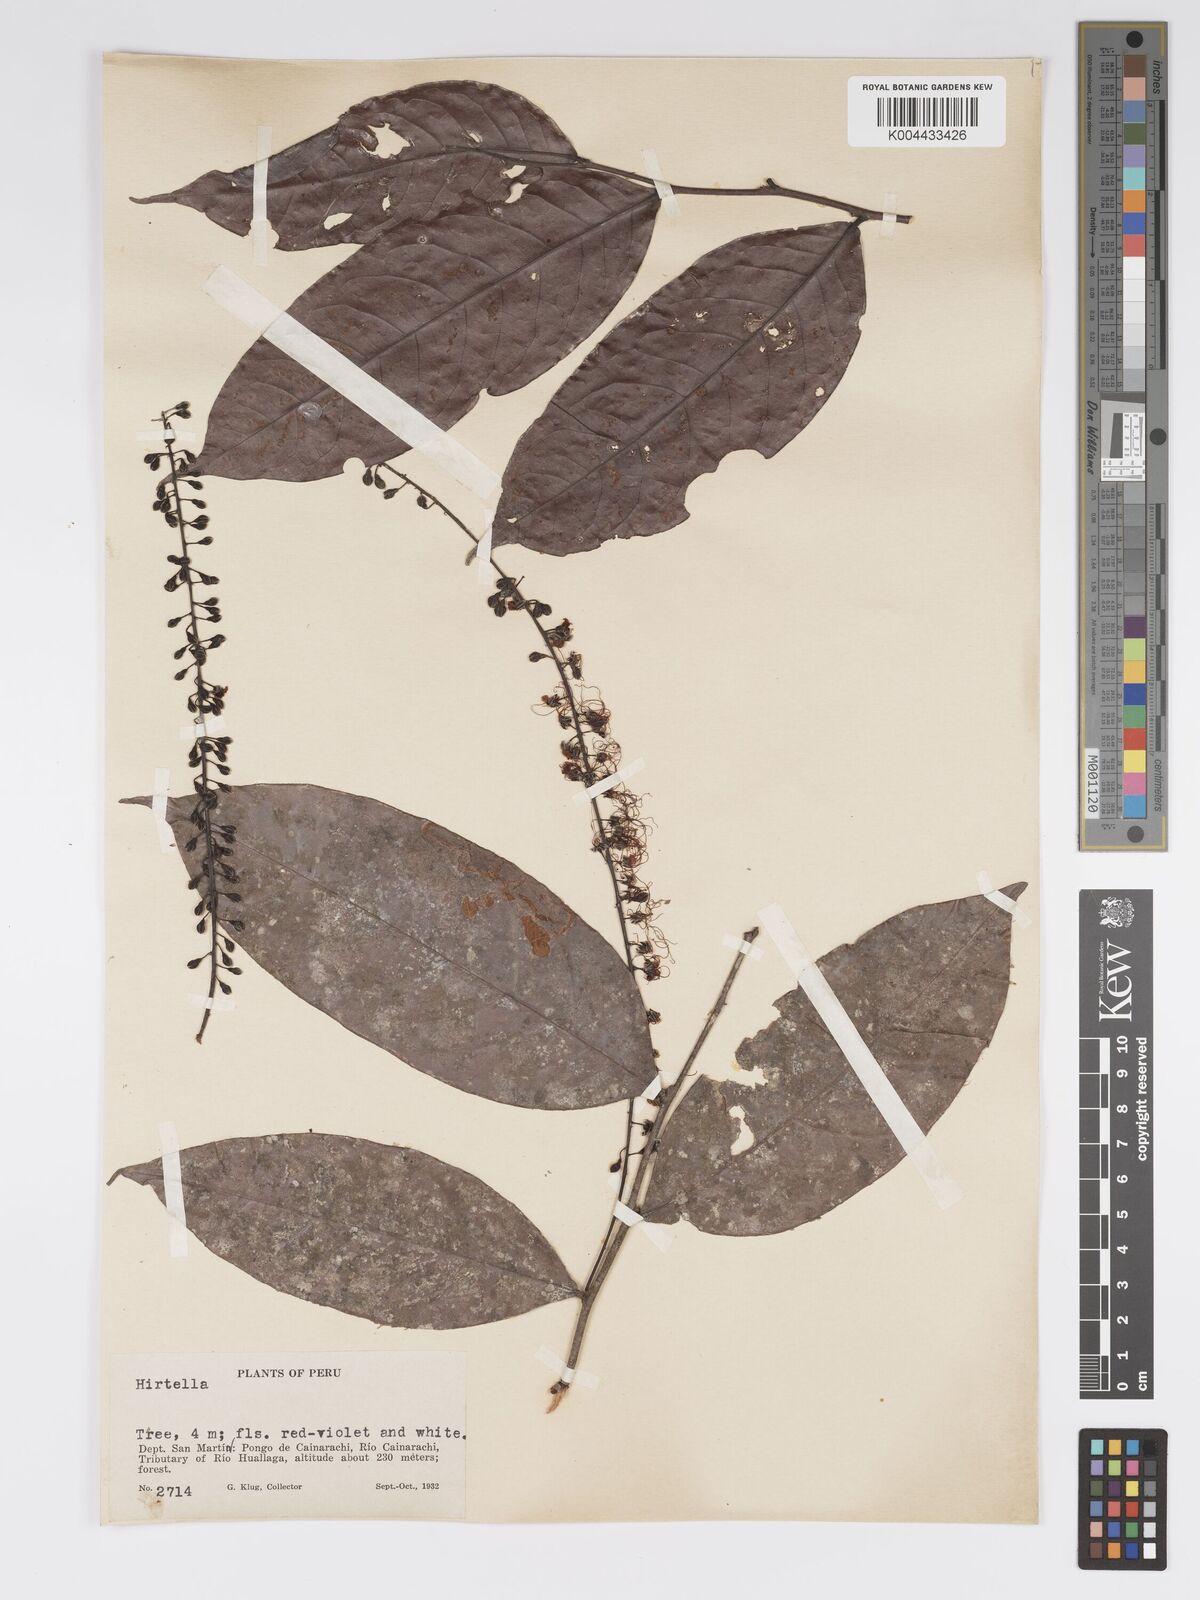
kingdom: Plantae
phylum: Tracheophyta
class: Magnoliopsida
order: Malpighiales
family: Chrysobalanaceae
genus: Hirtella
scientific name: Hirtella racemosa
